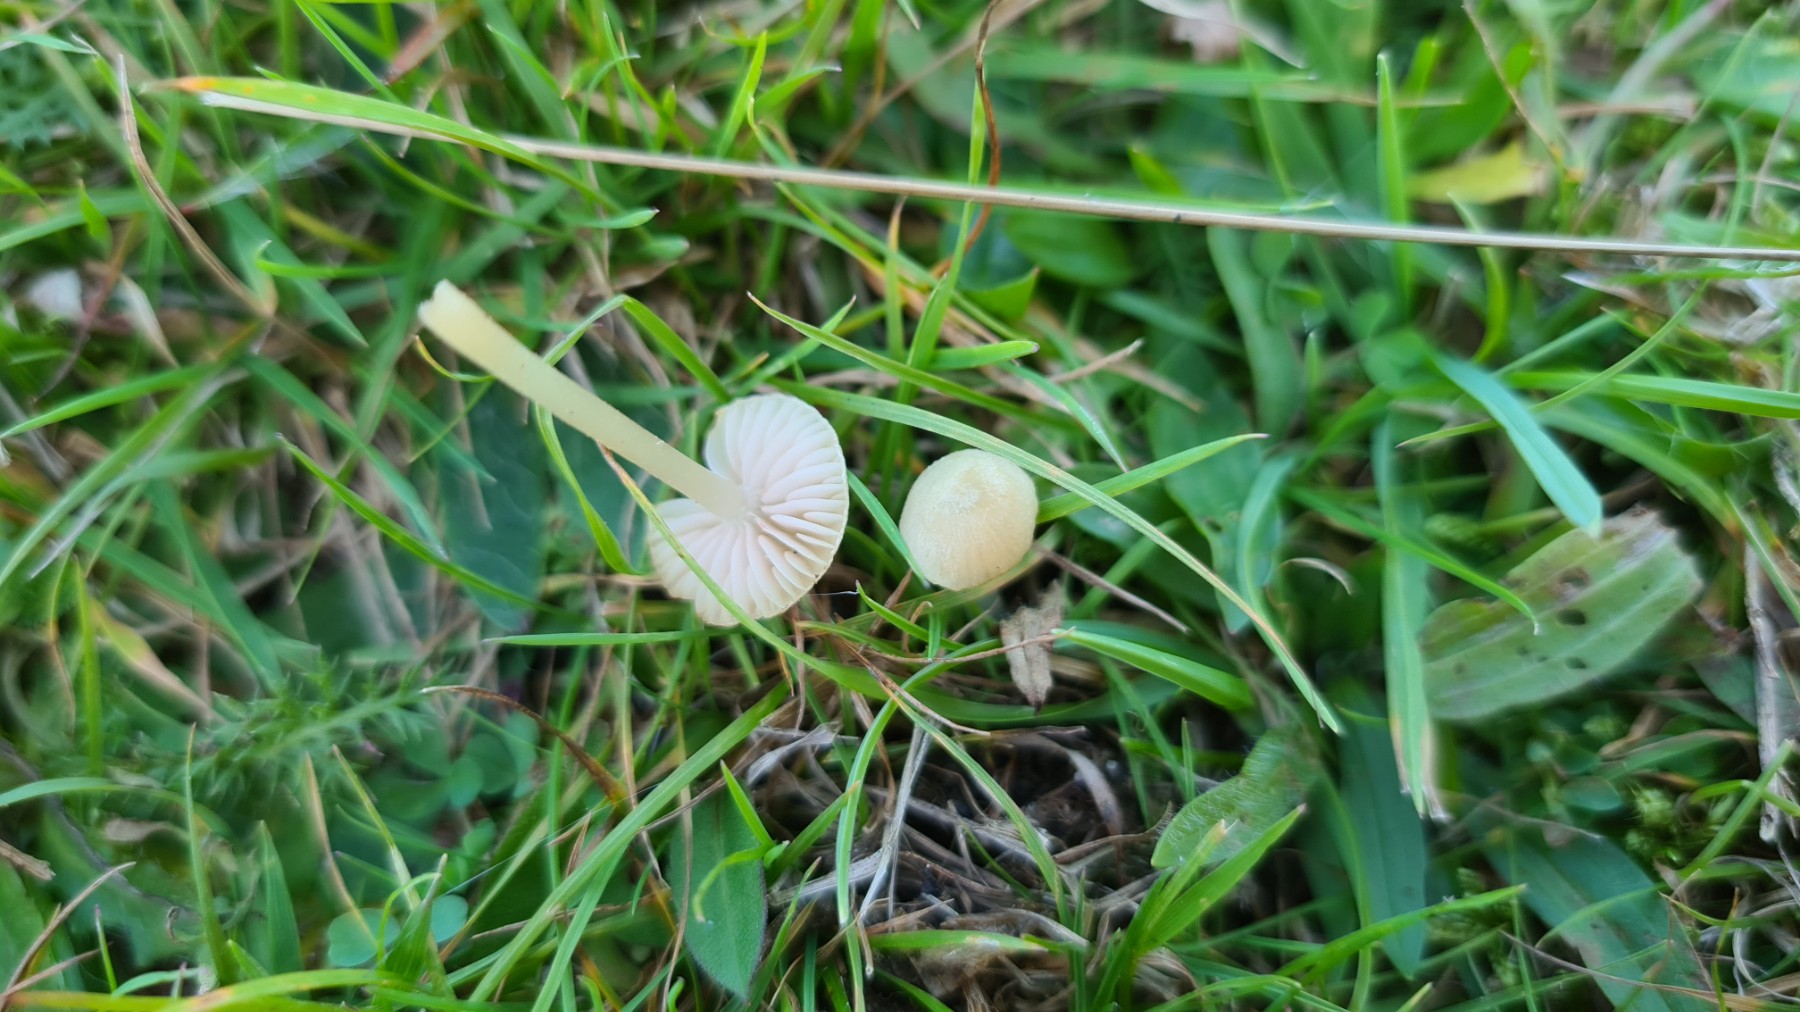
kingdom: Fungi
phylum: Basidiomycota
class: Agaricomycetes
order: Agaricales
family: Entolomataceae
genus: Entoloma
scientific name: Entoloma sericellum
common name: silkehvid rødblad
